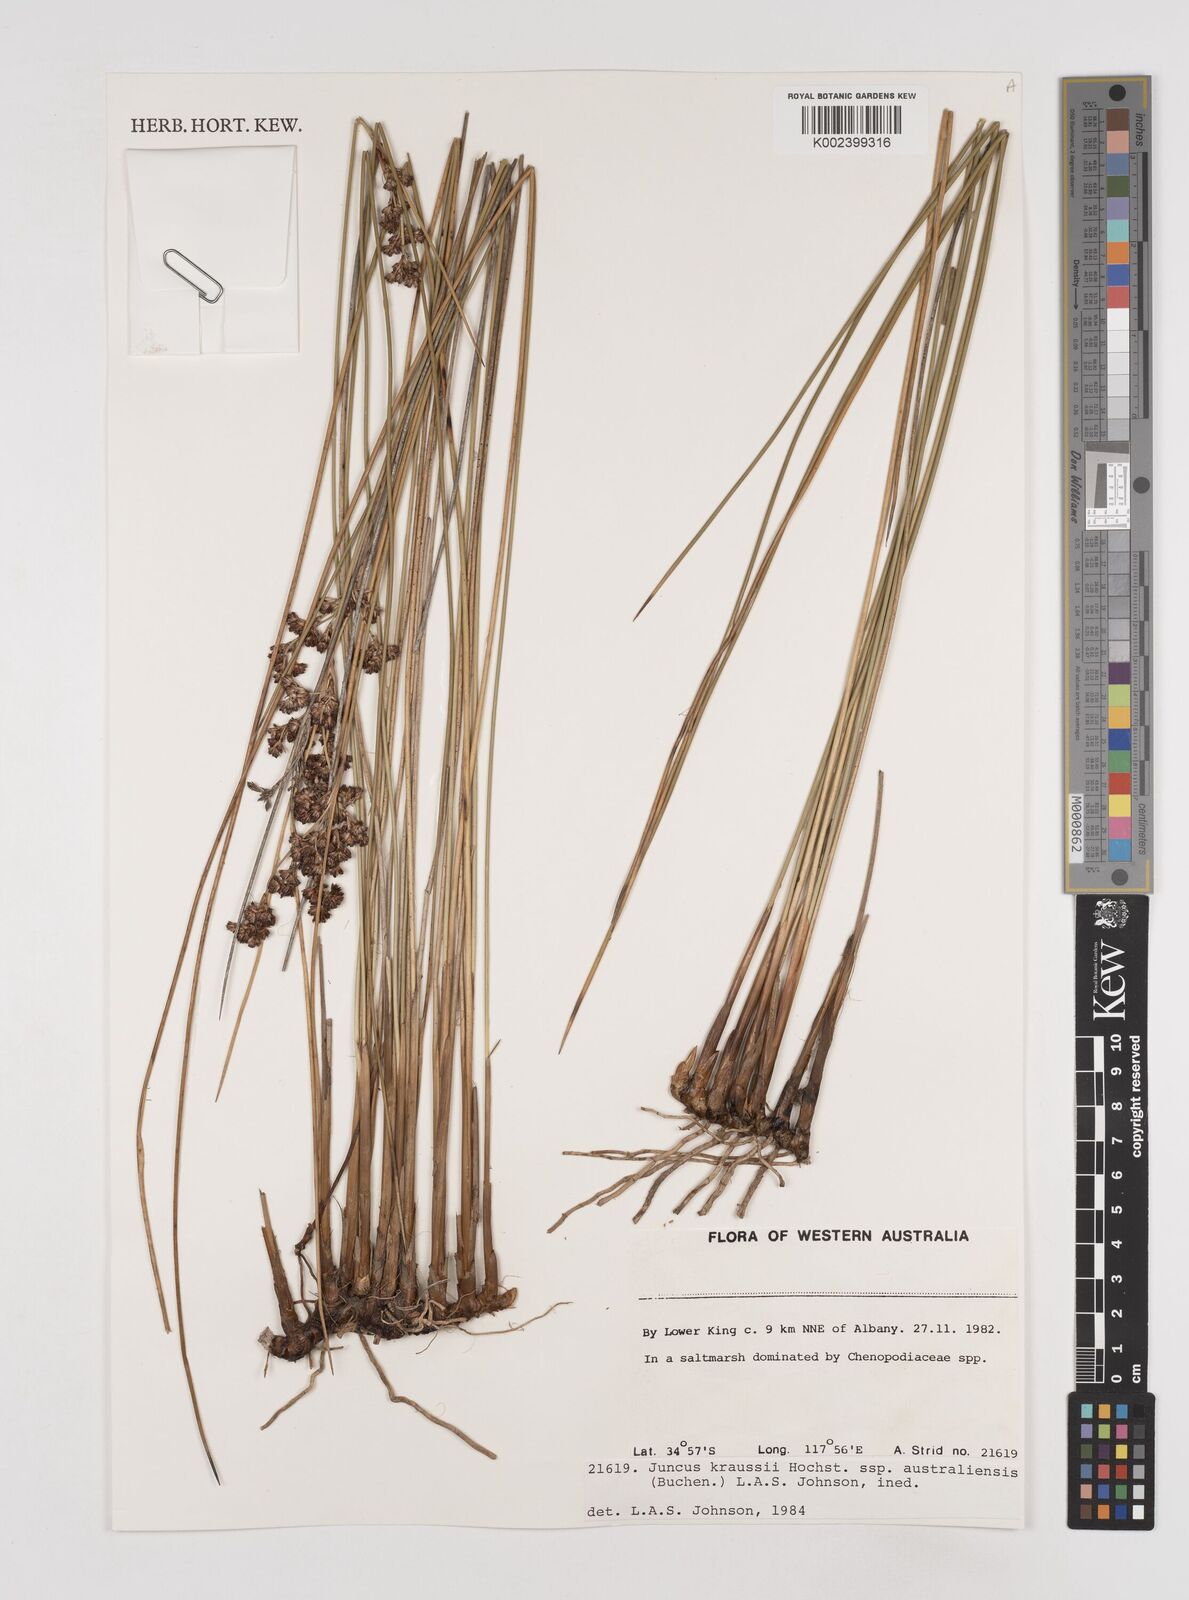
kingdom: Plantae
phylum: Tracheophyta
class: Liliopsida
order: Poales
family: Juncaceae
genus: Juncus
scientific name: Juncus kraussii
